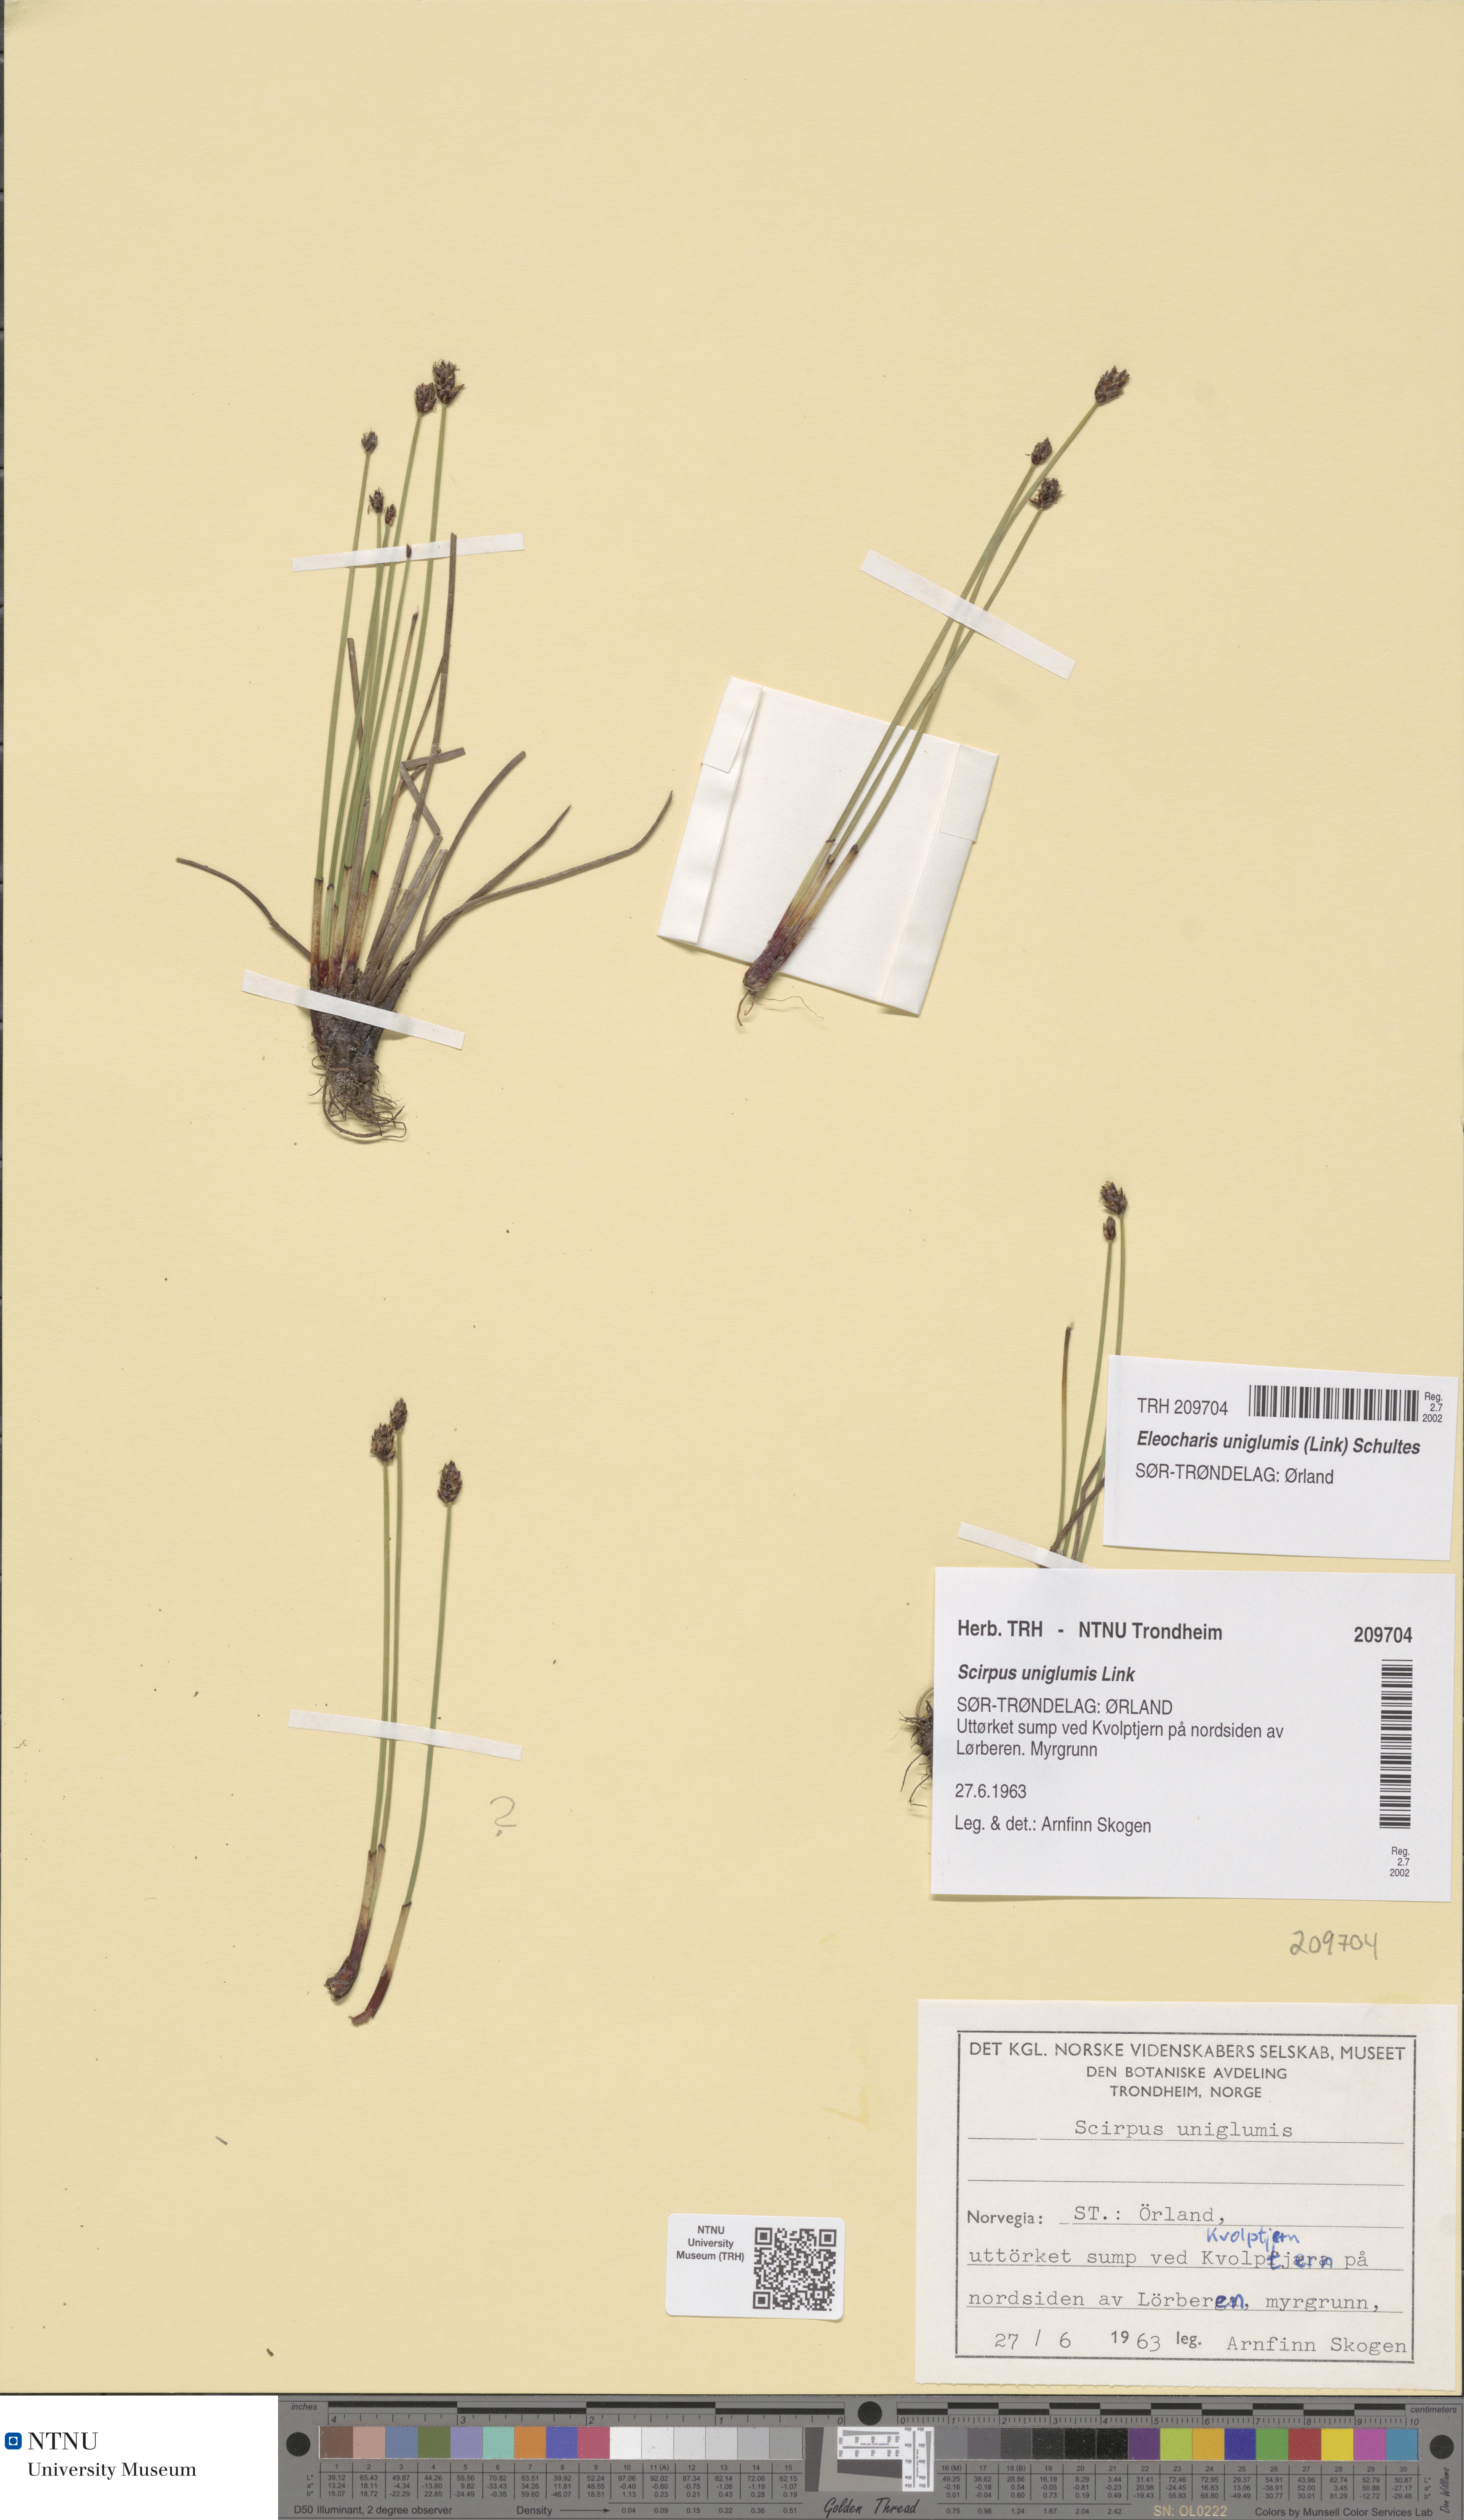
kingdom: Plantae
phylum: Tracheophyta
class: Liliopsida
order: Poales
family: Cyperaceae
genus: Eleocharis
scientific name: Eleocharis uniglumis
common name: Slender spike-rush
